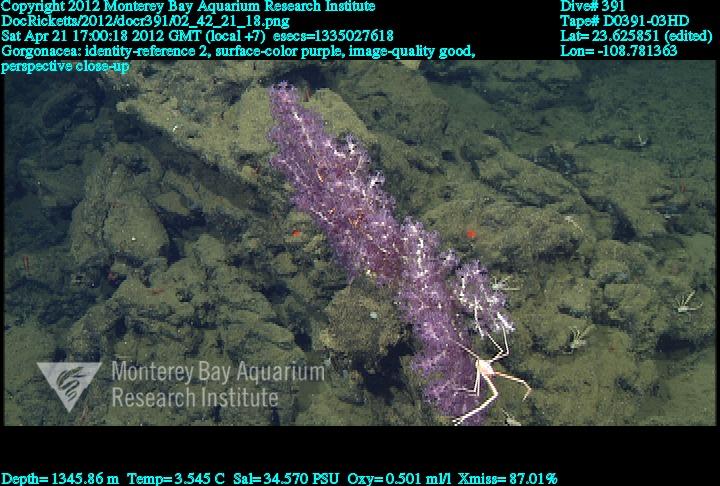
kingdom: Animalia
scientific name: Animalia
